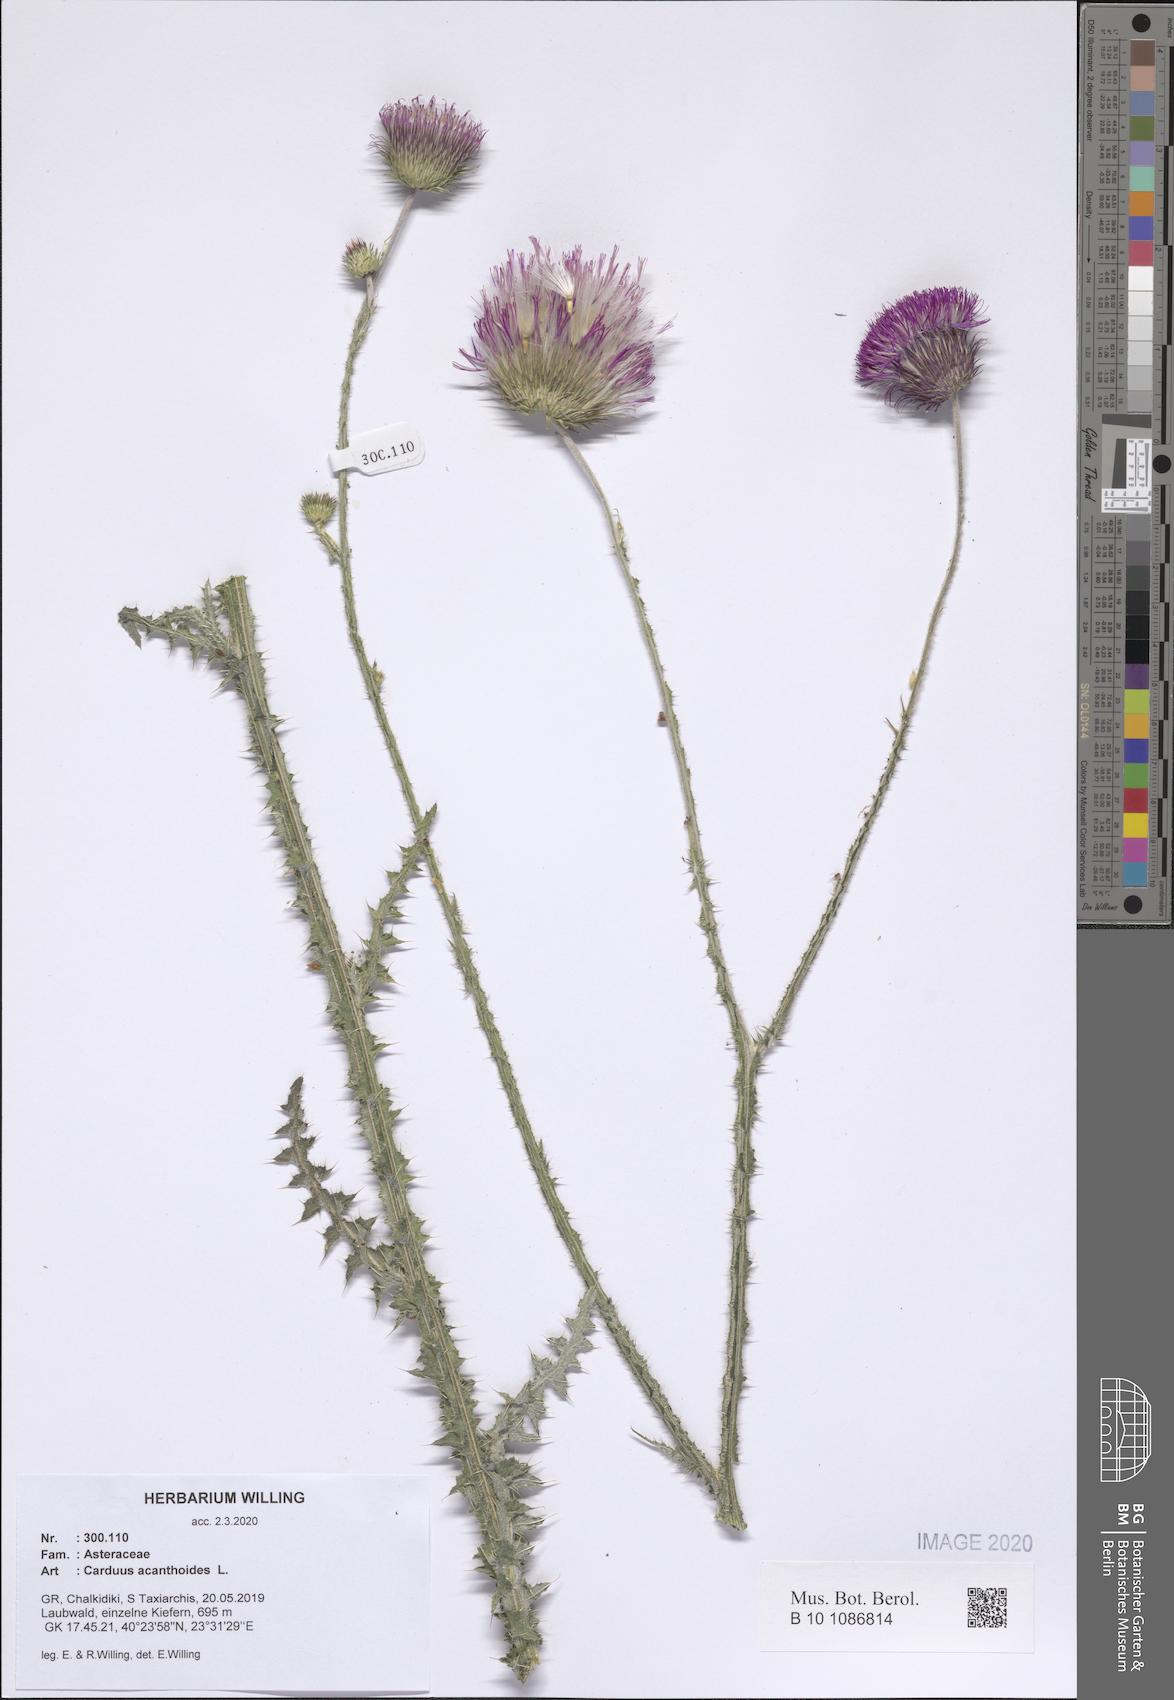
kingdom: Plantae
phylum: Tracheophyta
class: Magnoliopsida
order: Asterales
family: Asteraceae
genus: Carduus
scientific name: Carduus acanthoides
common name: Plumeless thistle
